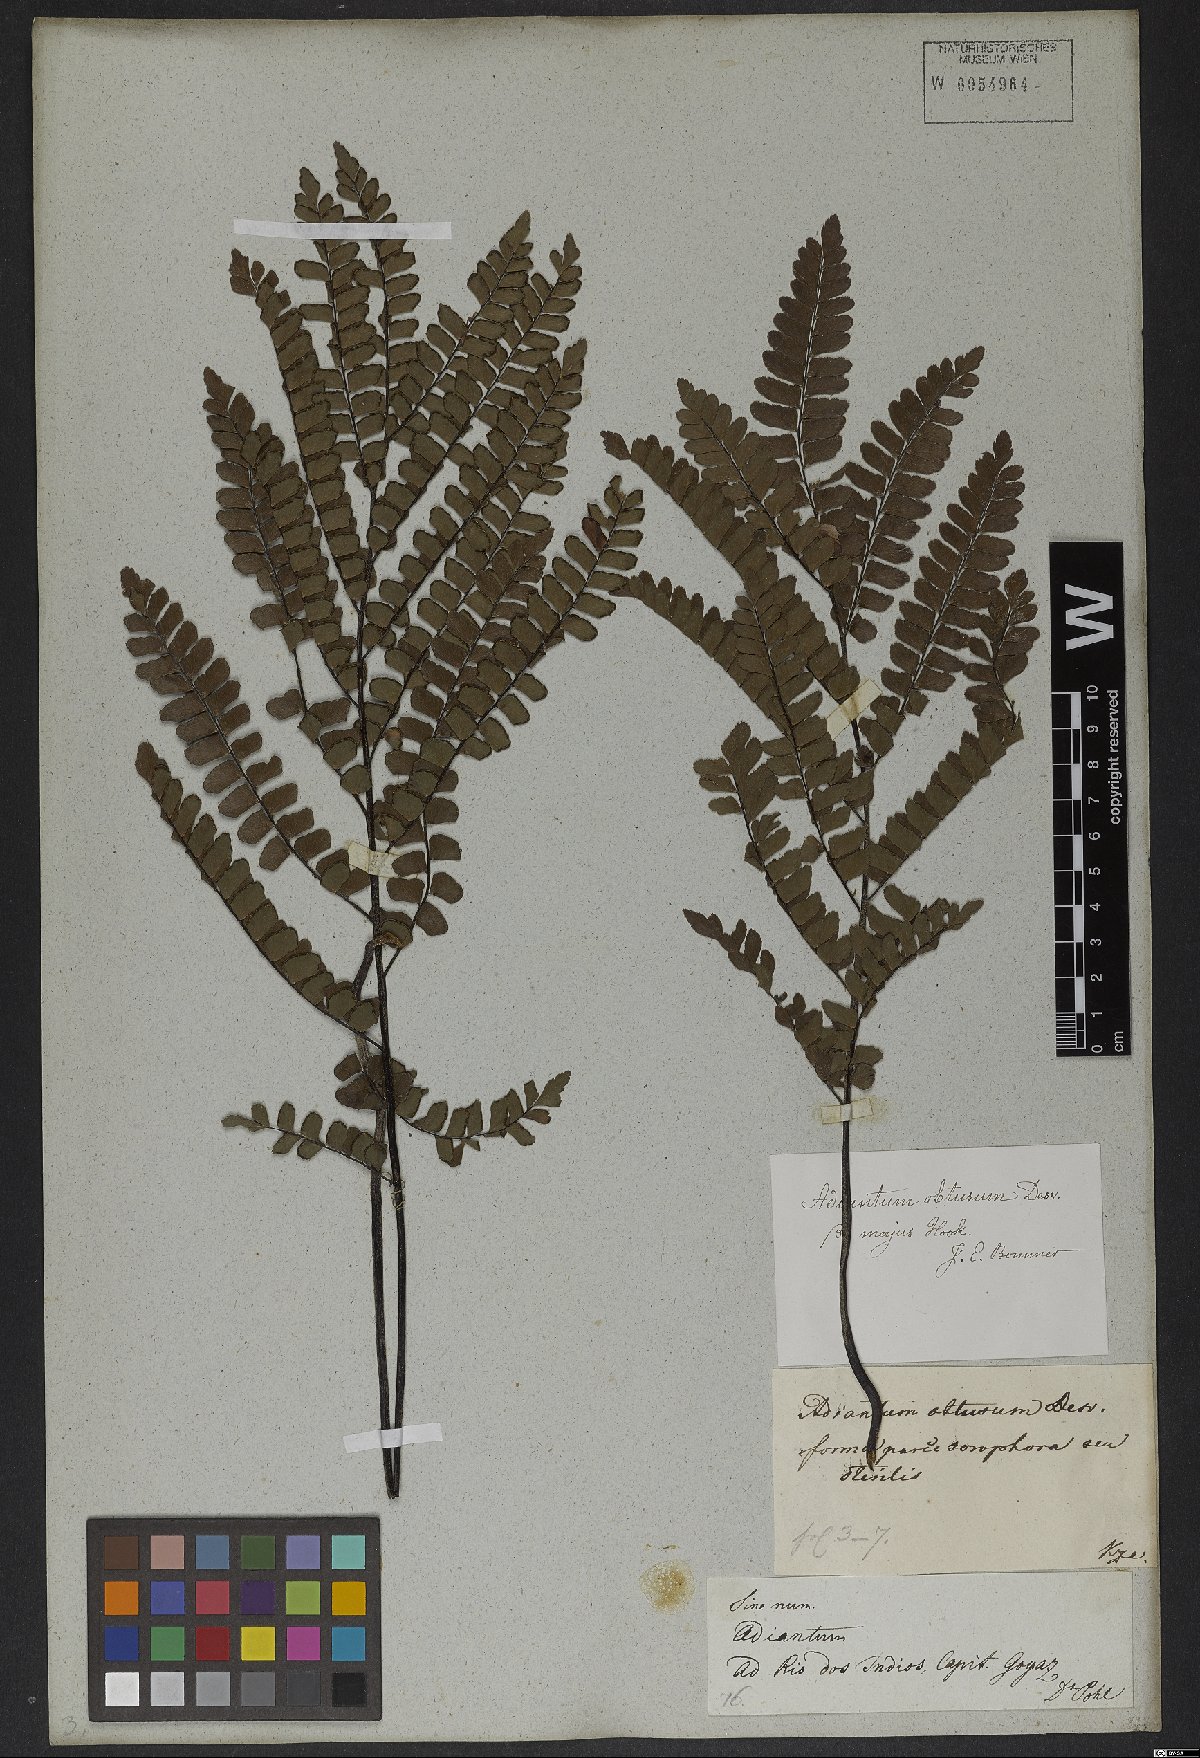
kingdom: Plantae
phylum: Tracheophyta
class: Polypodiopsida
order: Polypodiales
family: Pteridaceae
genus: Adiantum
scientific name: Adiantum serratodentatum
